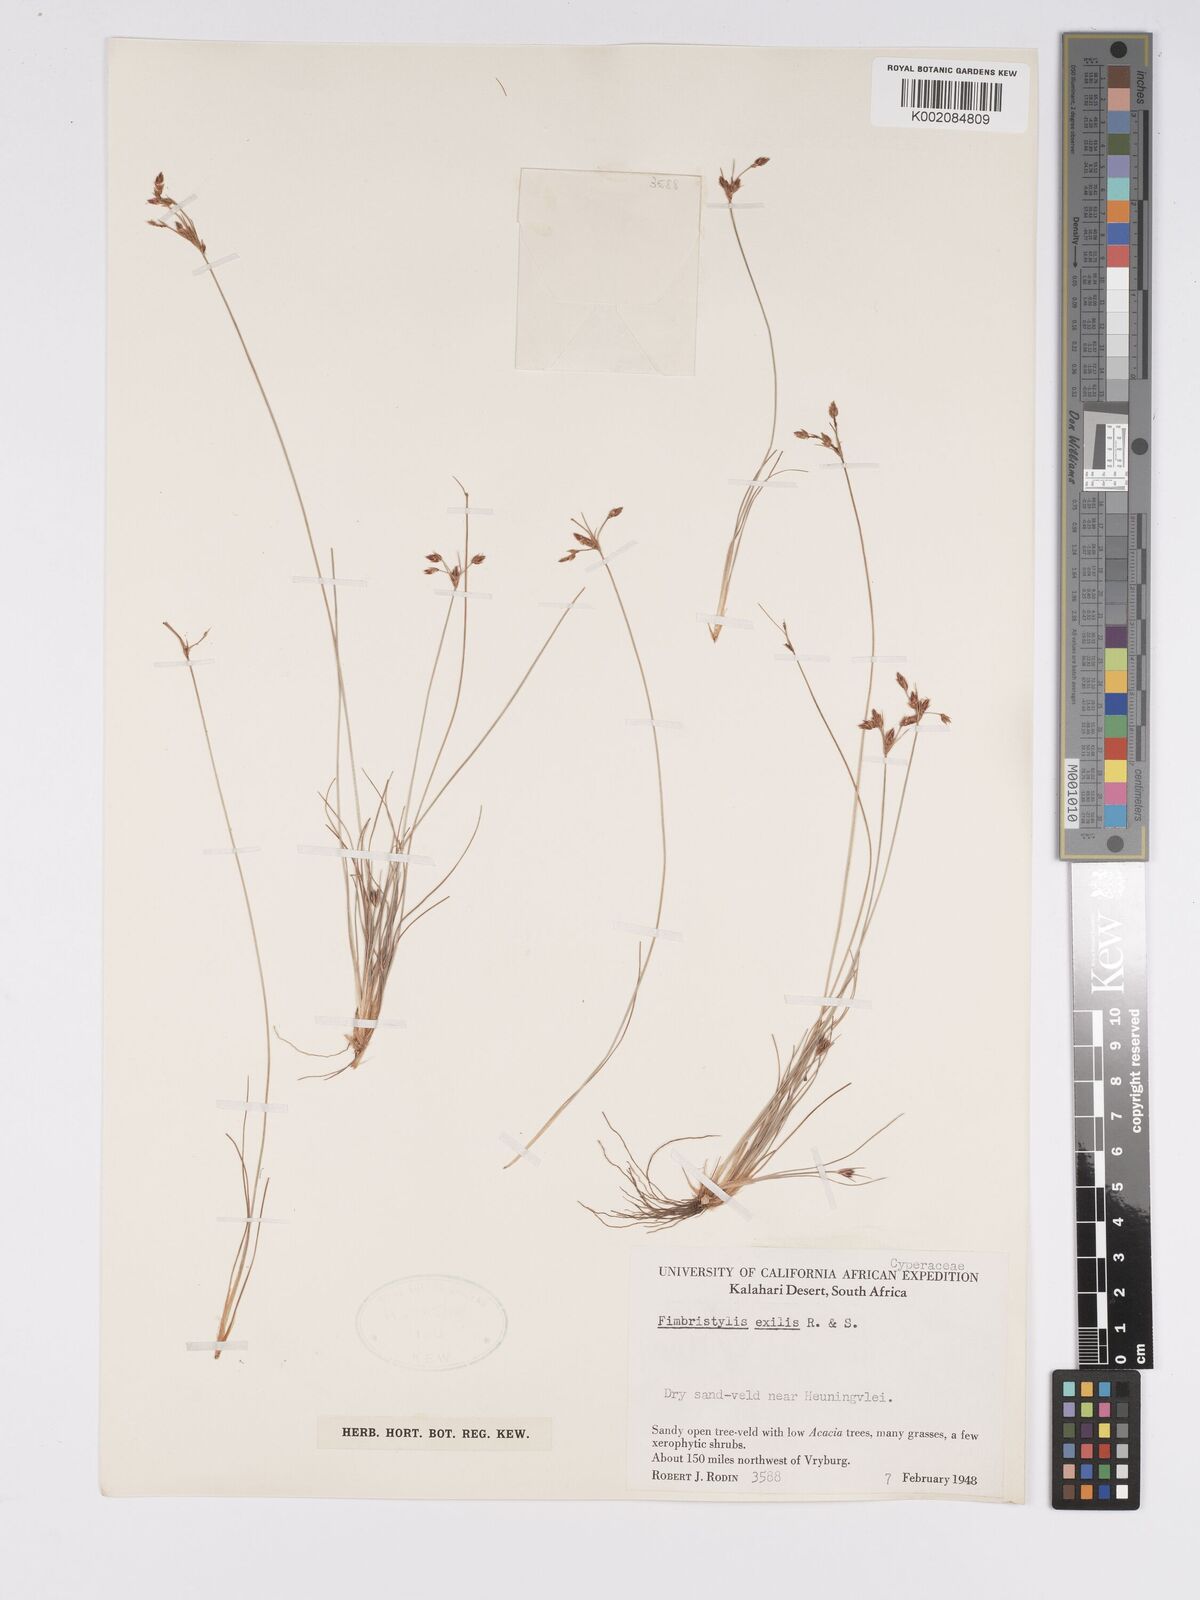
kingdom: Plantae
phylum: Tracheophyta
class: Liliopsida
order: Poales
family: Cyperaceae
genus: Bulbostylis
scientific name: Bulbostylis hispidula
